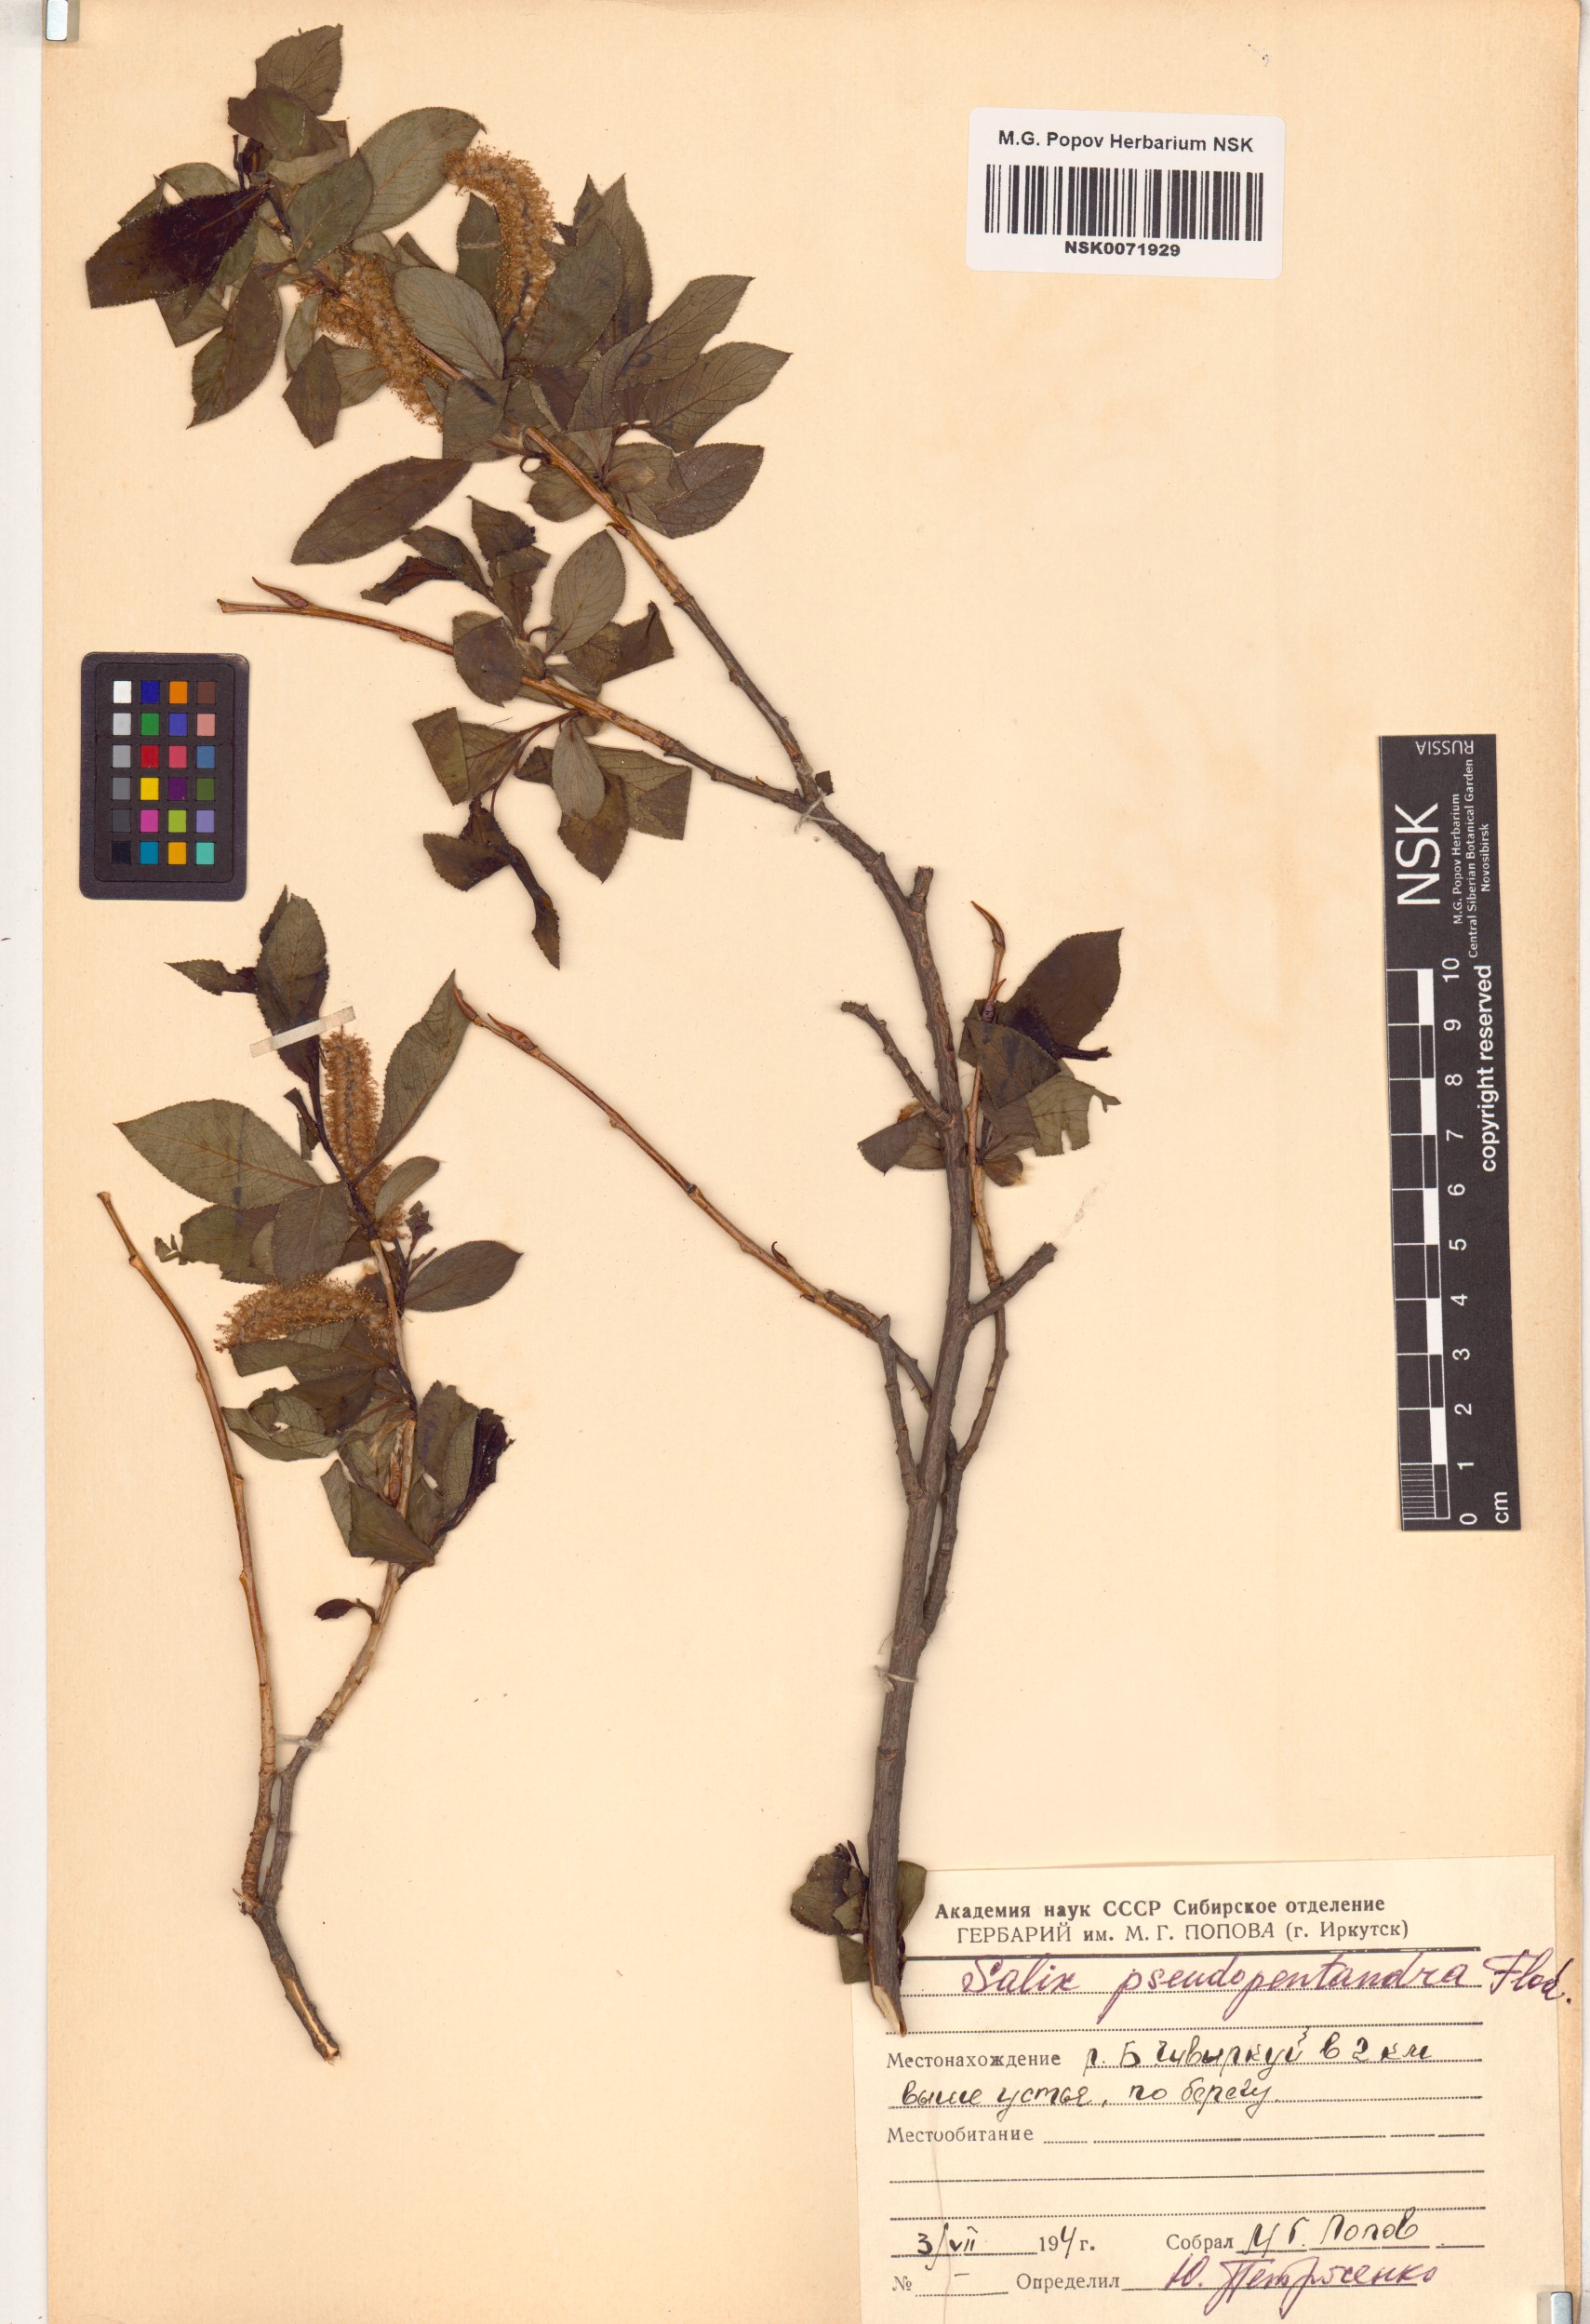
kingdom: Plantae
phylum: Tracheophyta
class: Magnoliopsida
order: Malpighiales
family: Salicaceae
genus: Salix
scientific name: Salix pseudopentandra
